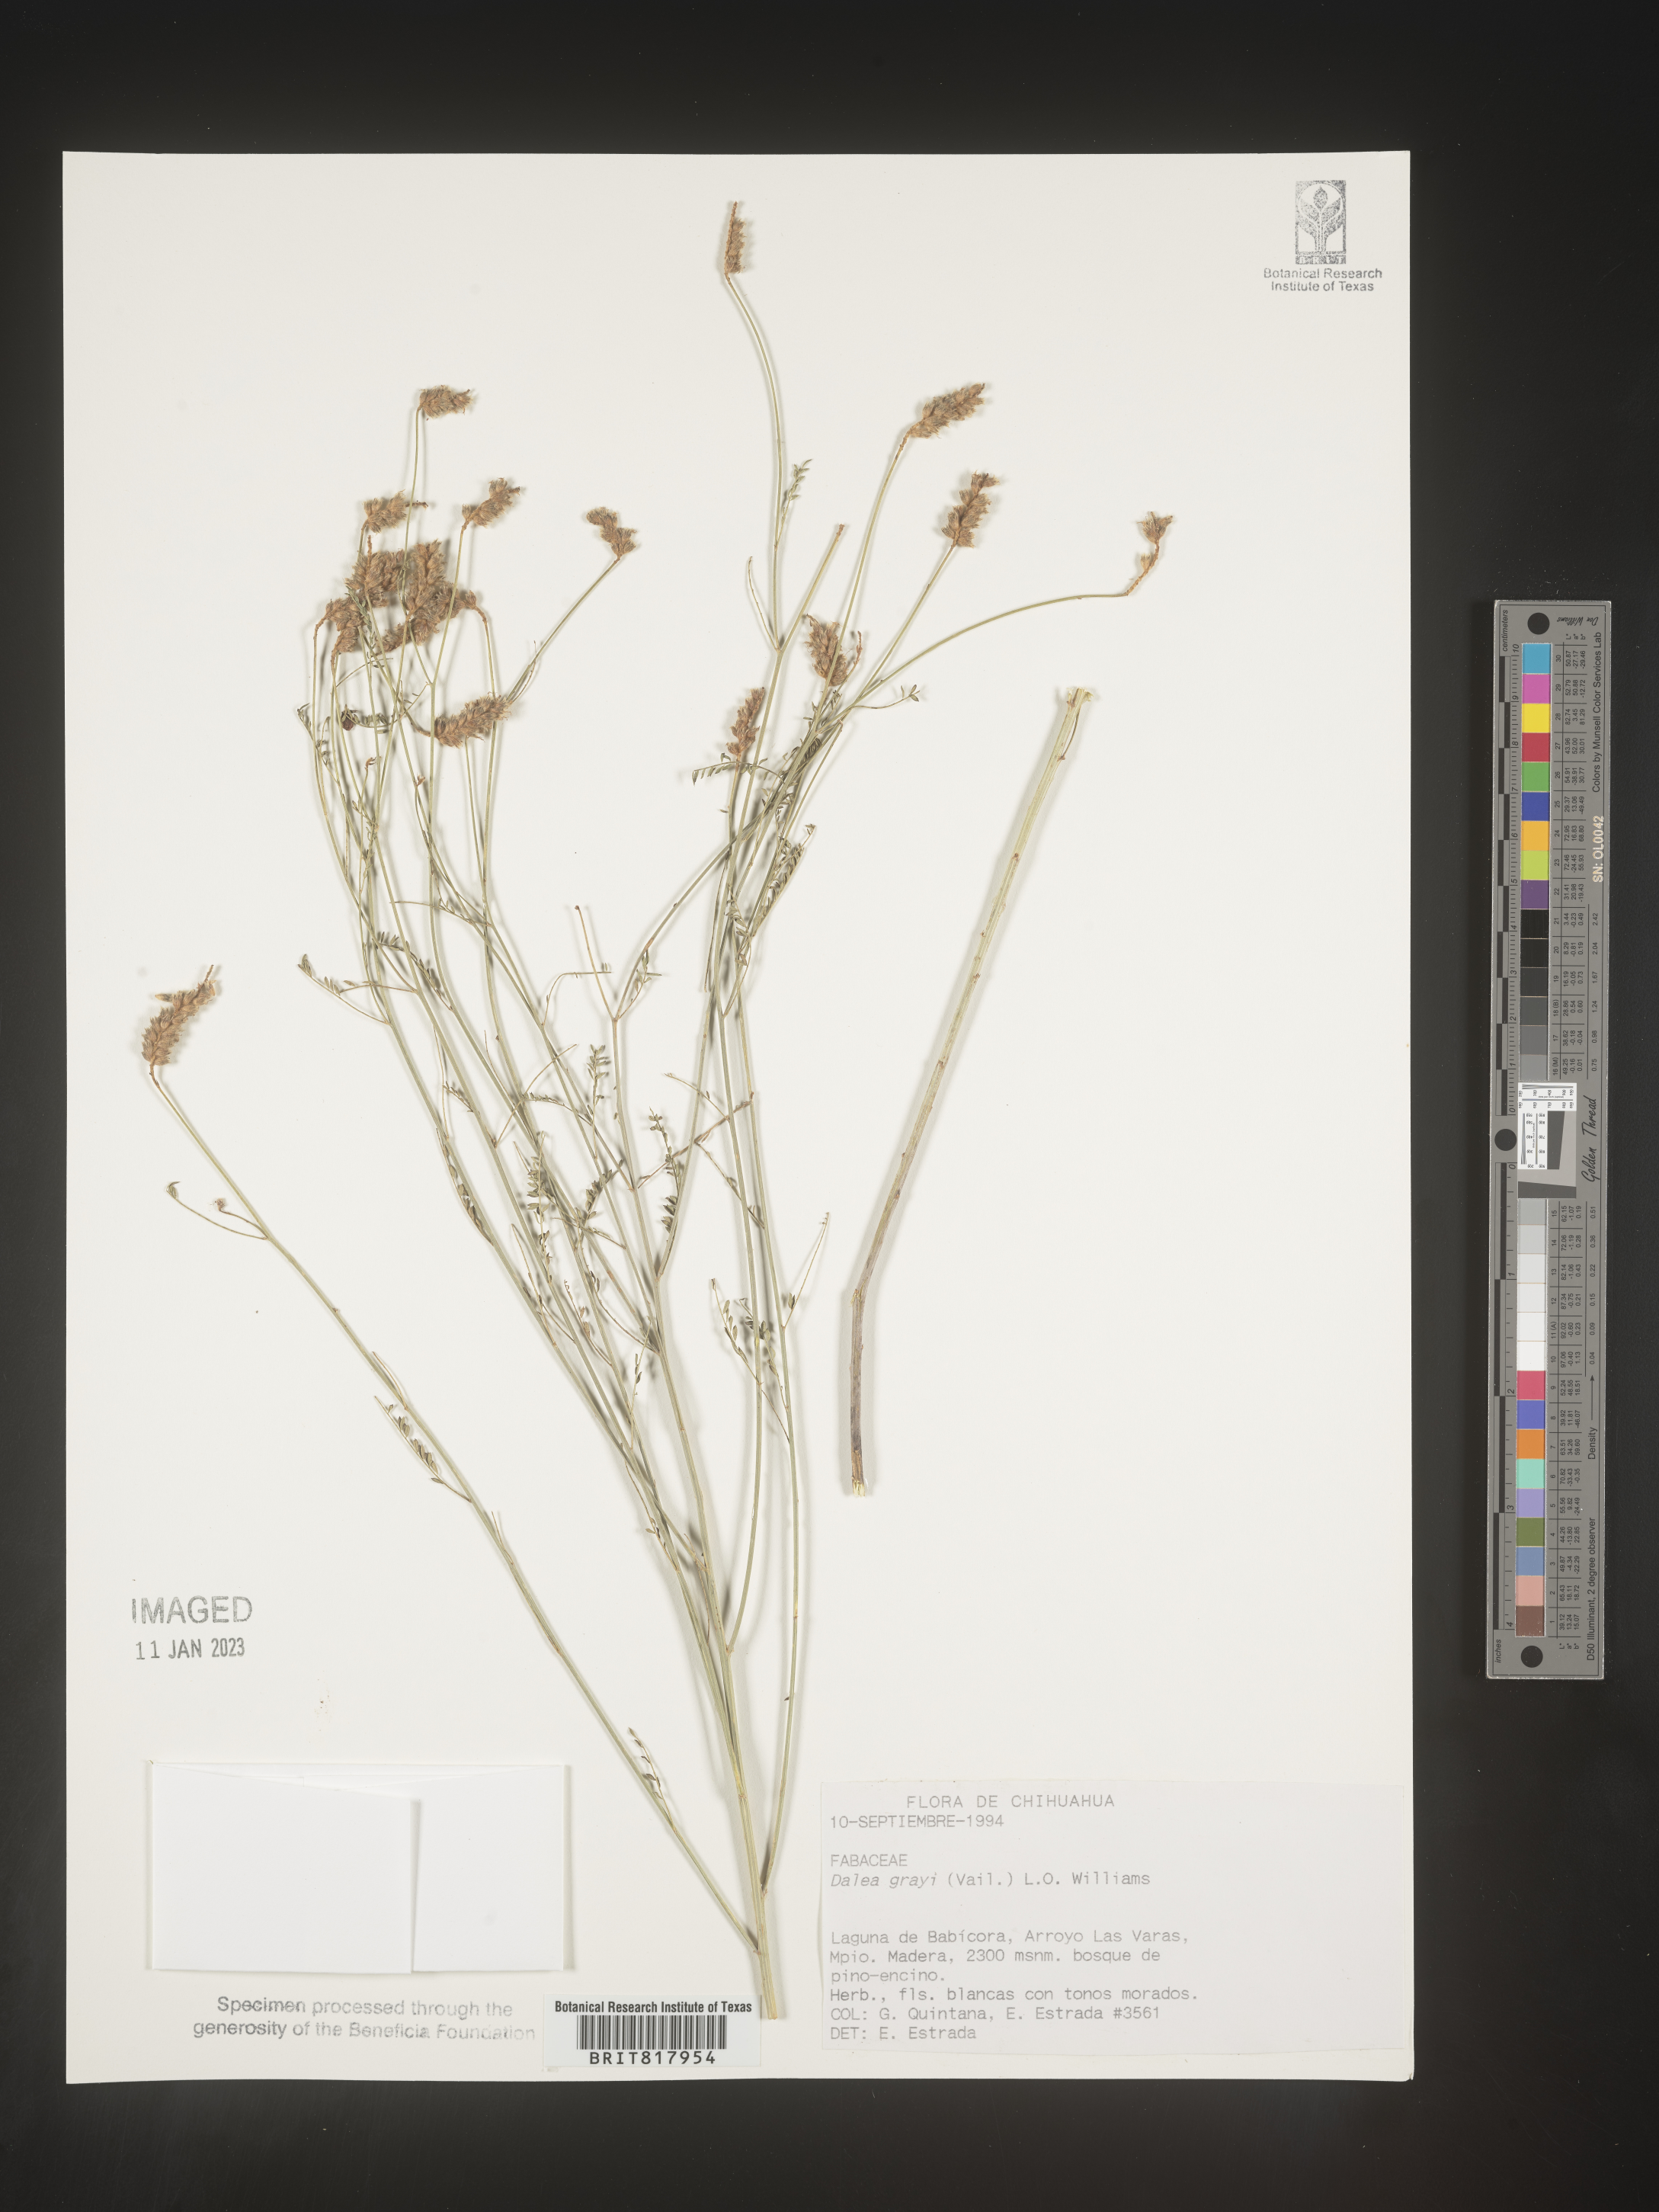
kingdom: Plantae
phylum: Tracheophyta
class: Magnoliopsida
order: Fabales
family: Fabaceae
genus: Dalea
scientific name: Dalea
